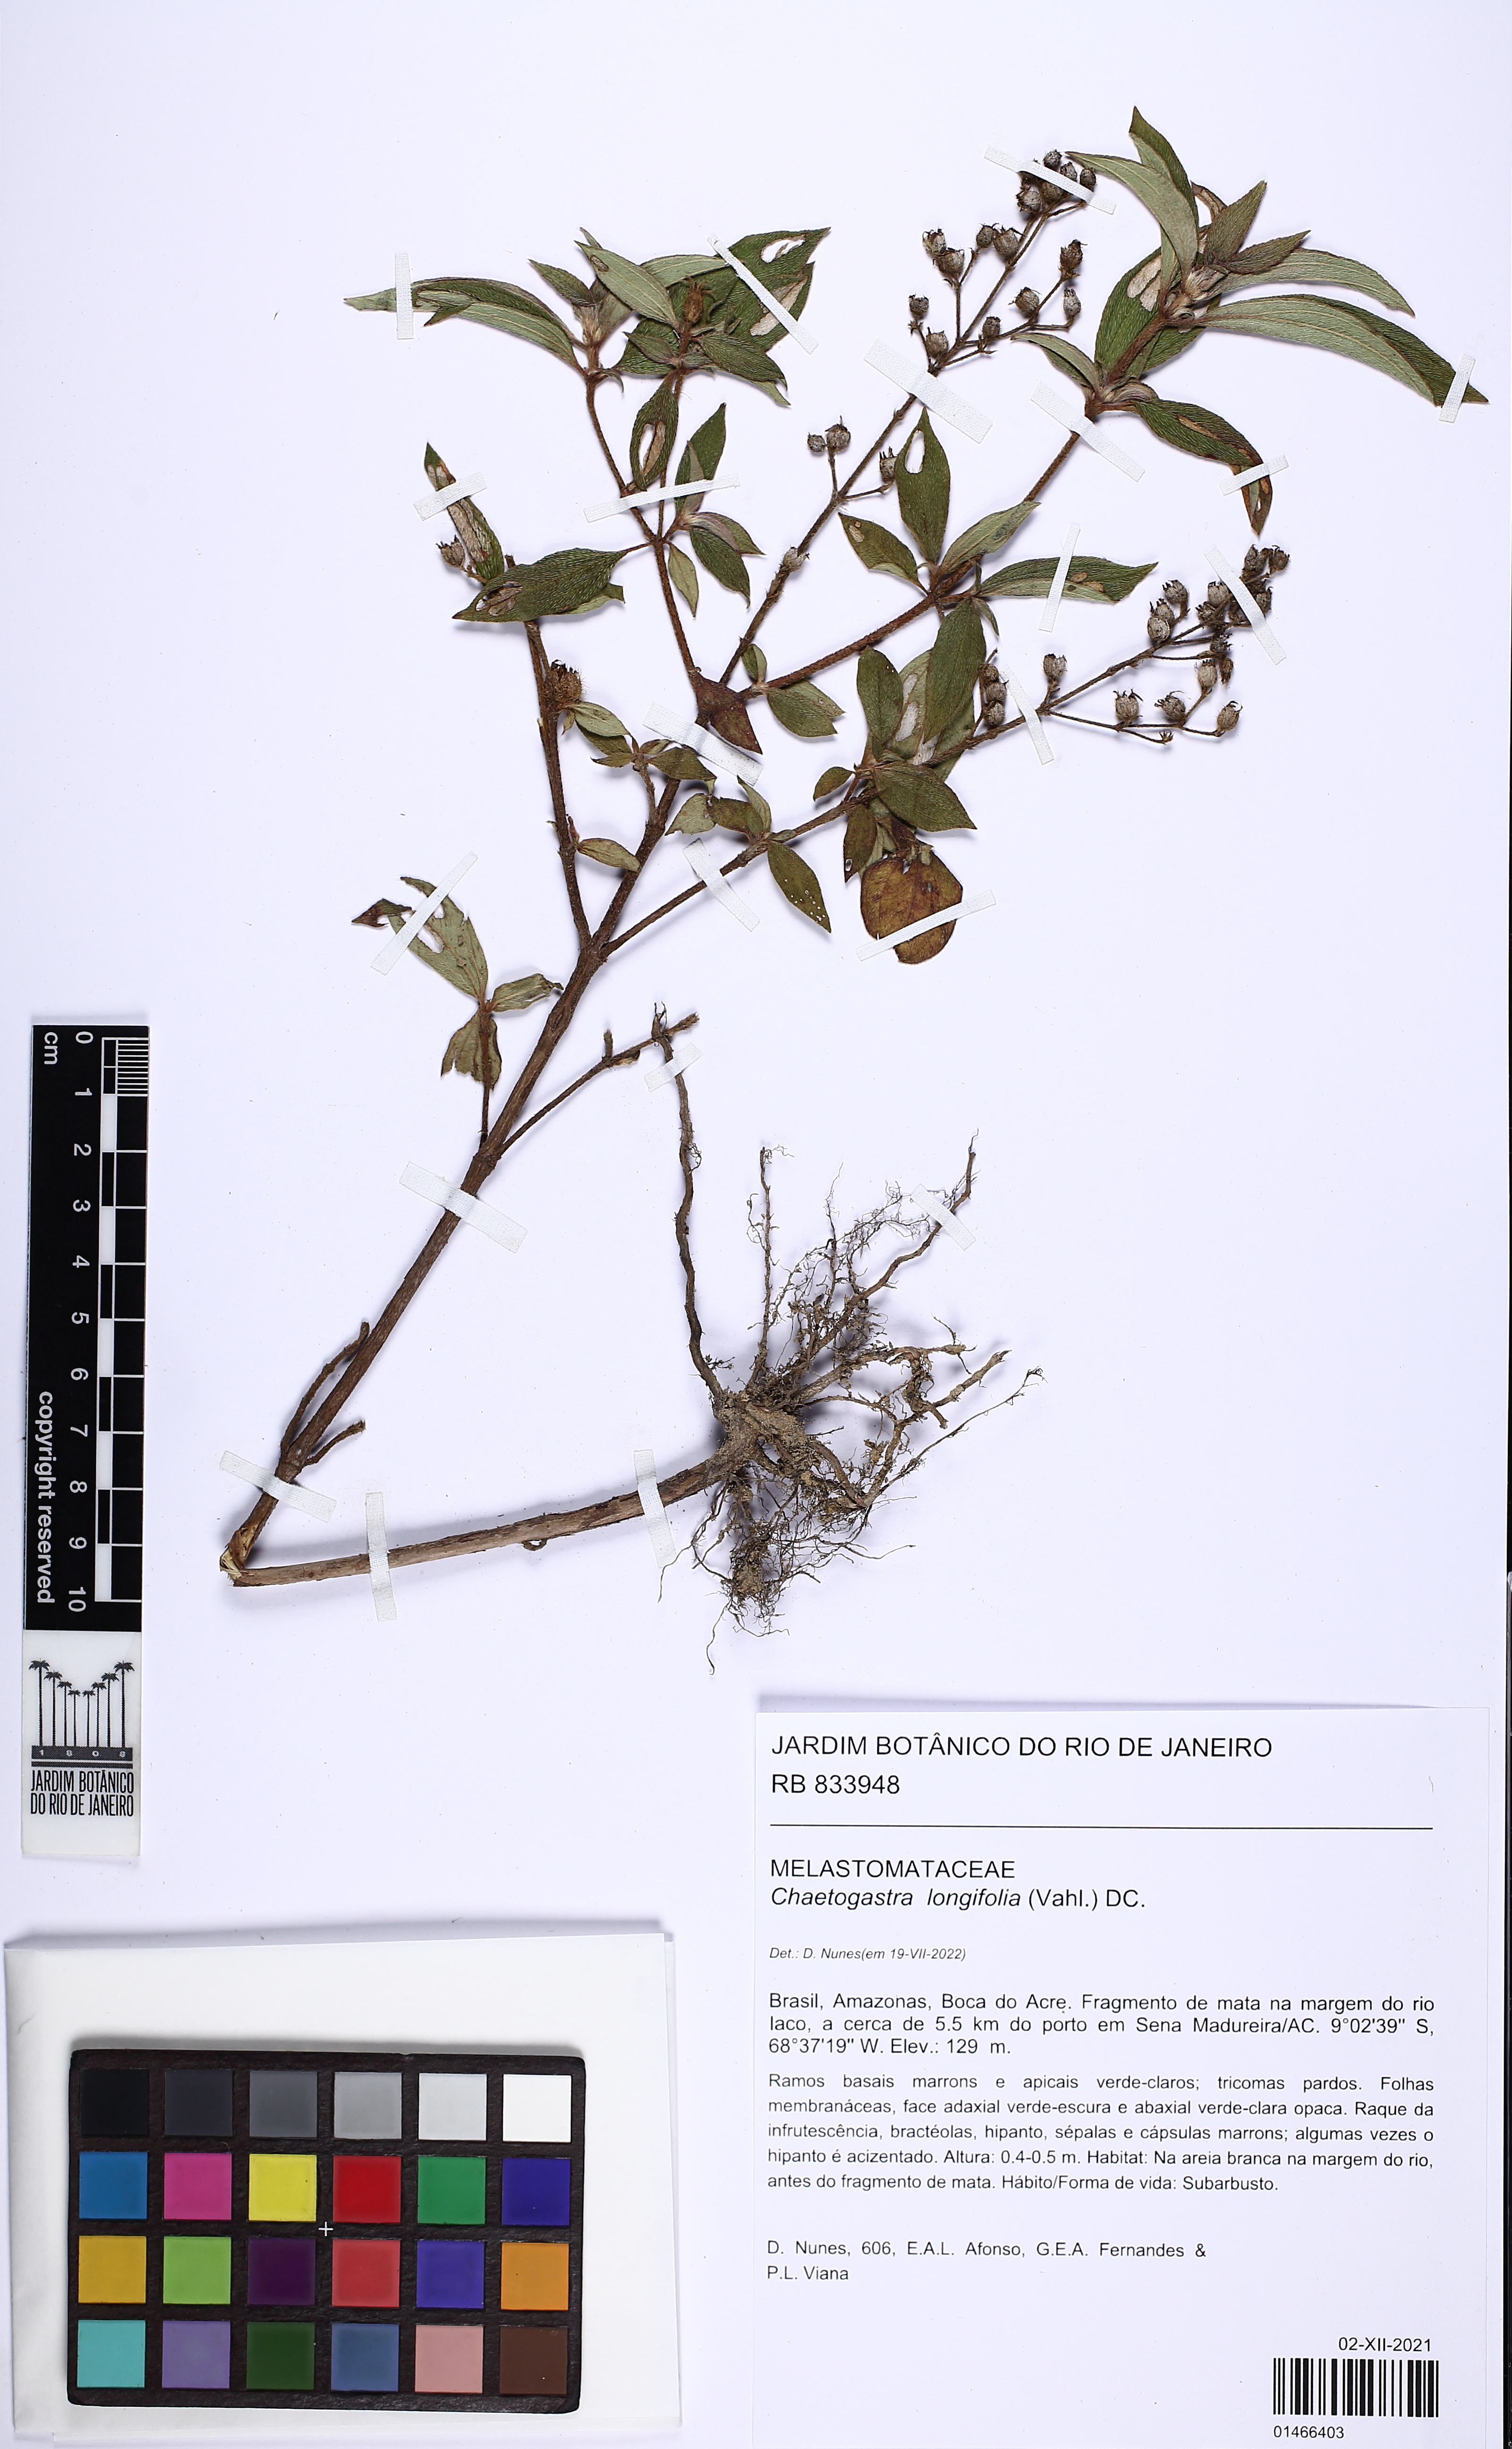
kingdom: Plantae
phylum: Tracheophyta
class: Magnoliopsida
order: Myrtales
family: Melastomataceae
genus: Chaetogastra
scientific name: Chaetogastra longifolia
